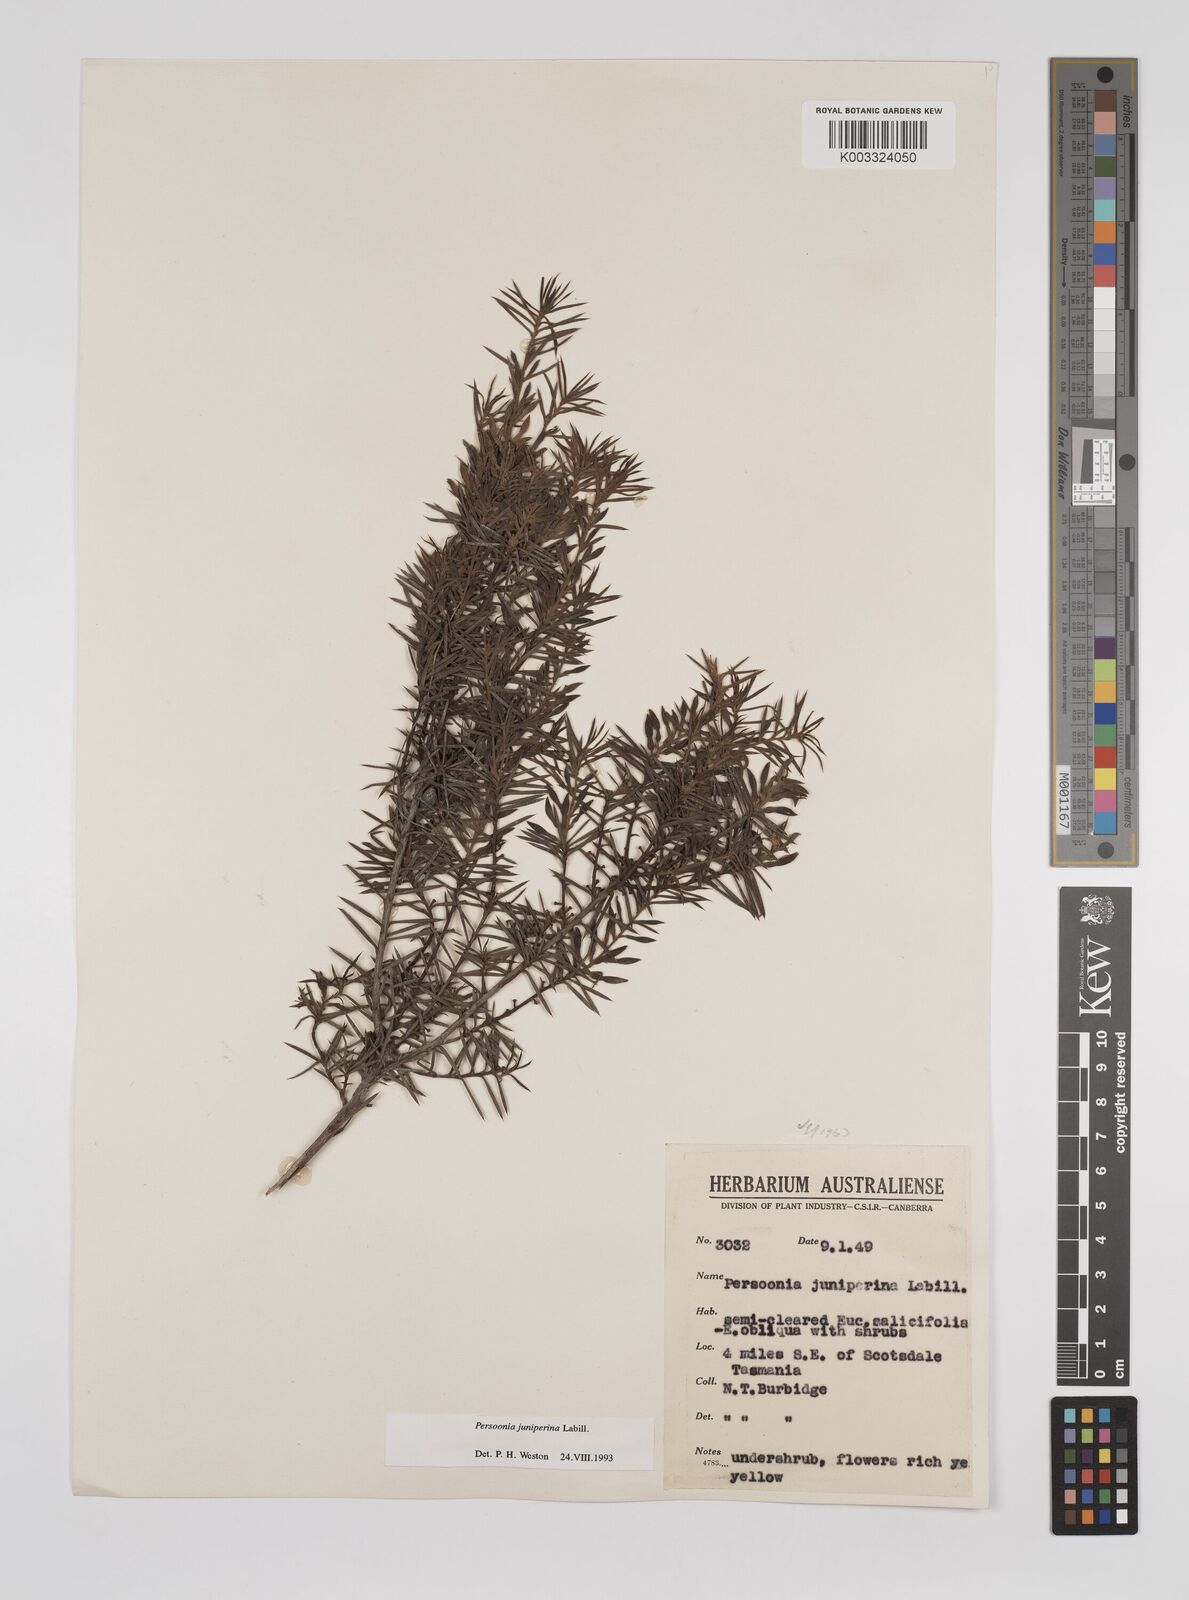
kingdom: Plantae
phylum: Tracheophyta
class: Magnoliopsida
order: Proteales
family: Proteaceae
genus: Persoonia
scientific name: Persoonia juniperina
